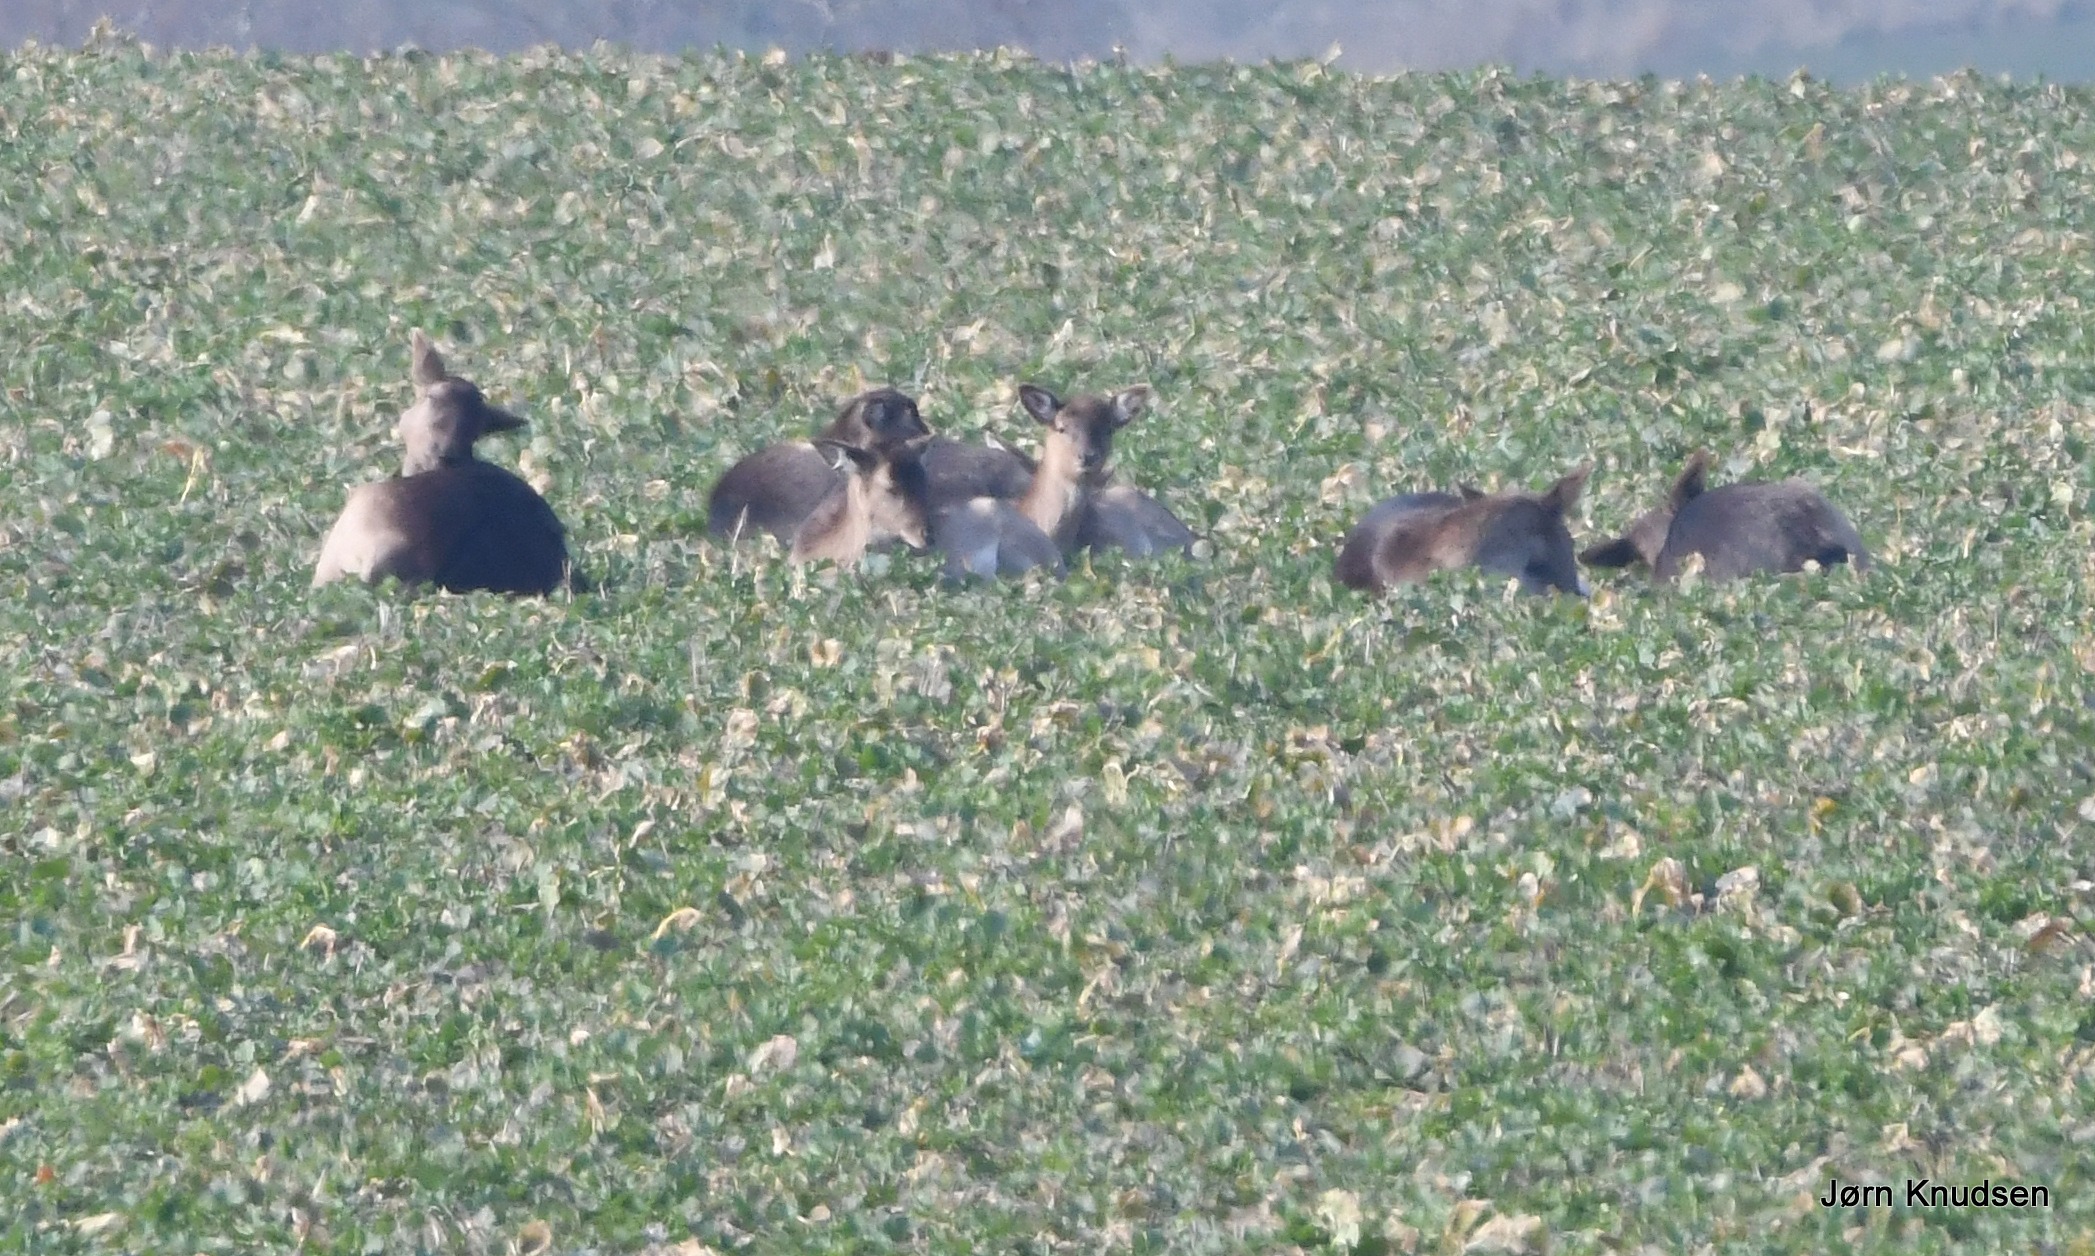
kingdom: Animalia
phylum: Chordata
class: Mammalia
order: Artiodactyla
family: Cervidae
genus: Dama
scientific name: Dama dama
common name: Dådyr
